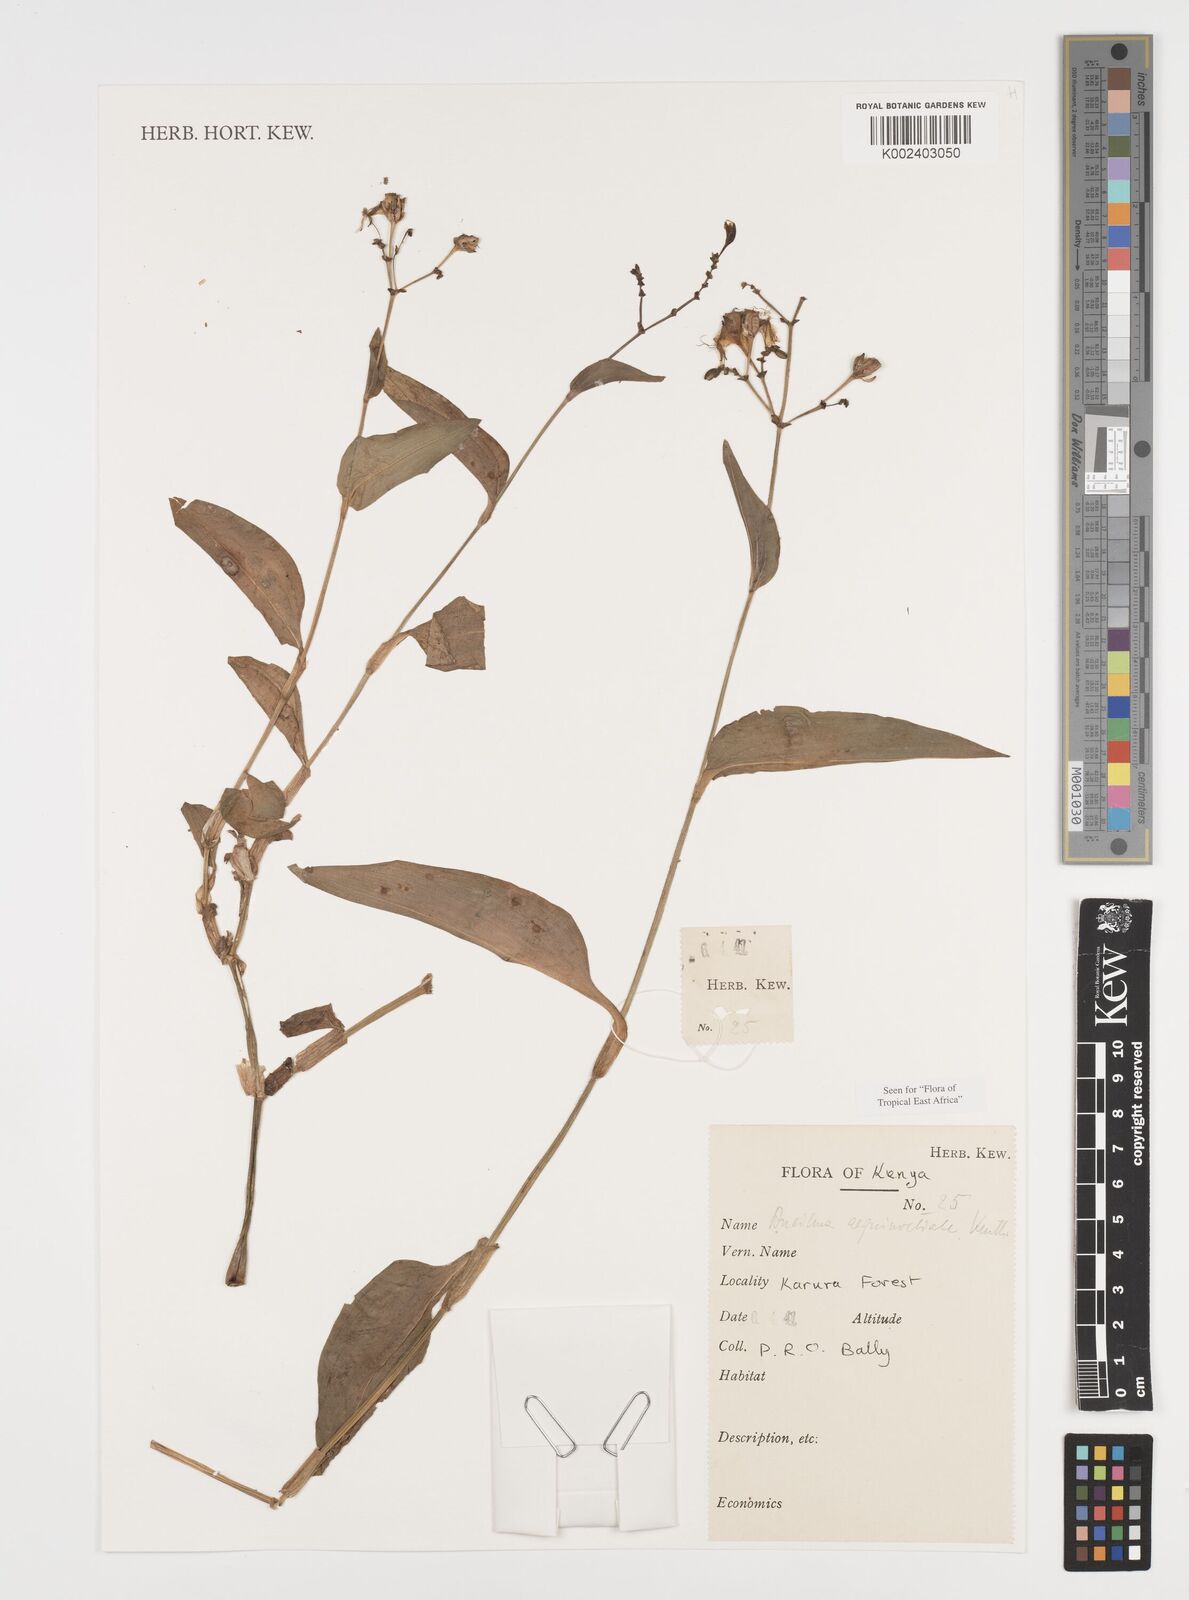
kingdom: Plantae
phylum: Tracheophyta
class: Liliopsida
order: Commelinales
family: Commelinaceae
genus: Aneilema
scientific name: Aneilema aequinoctiale
